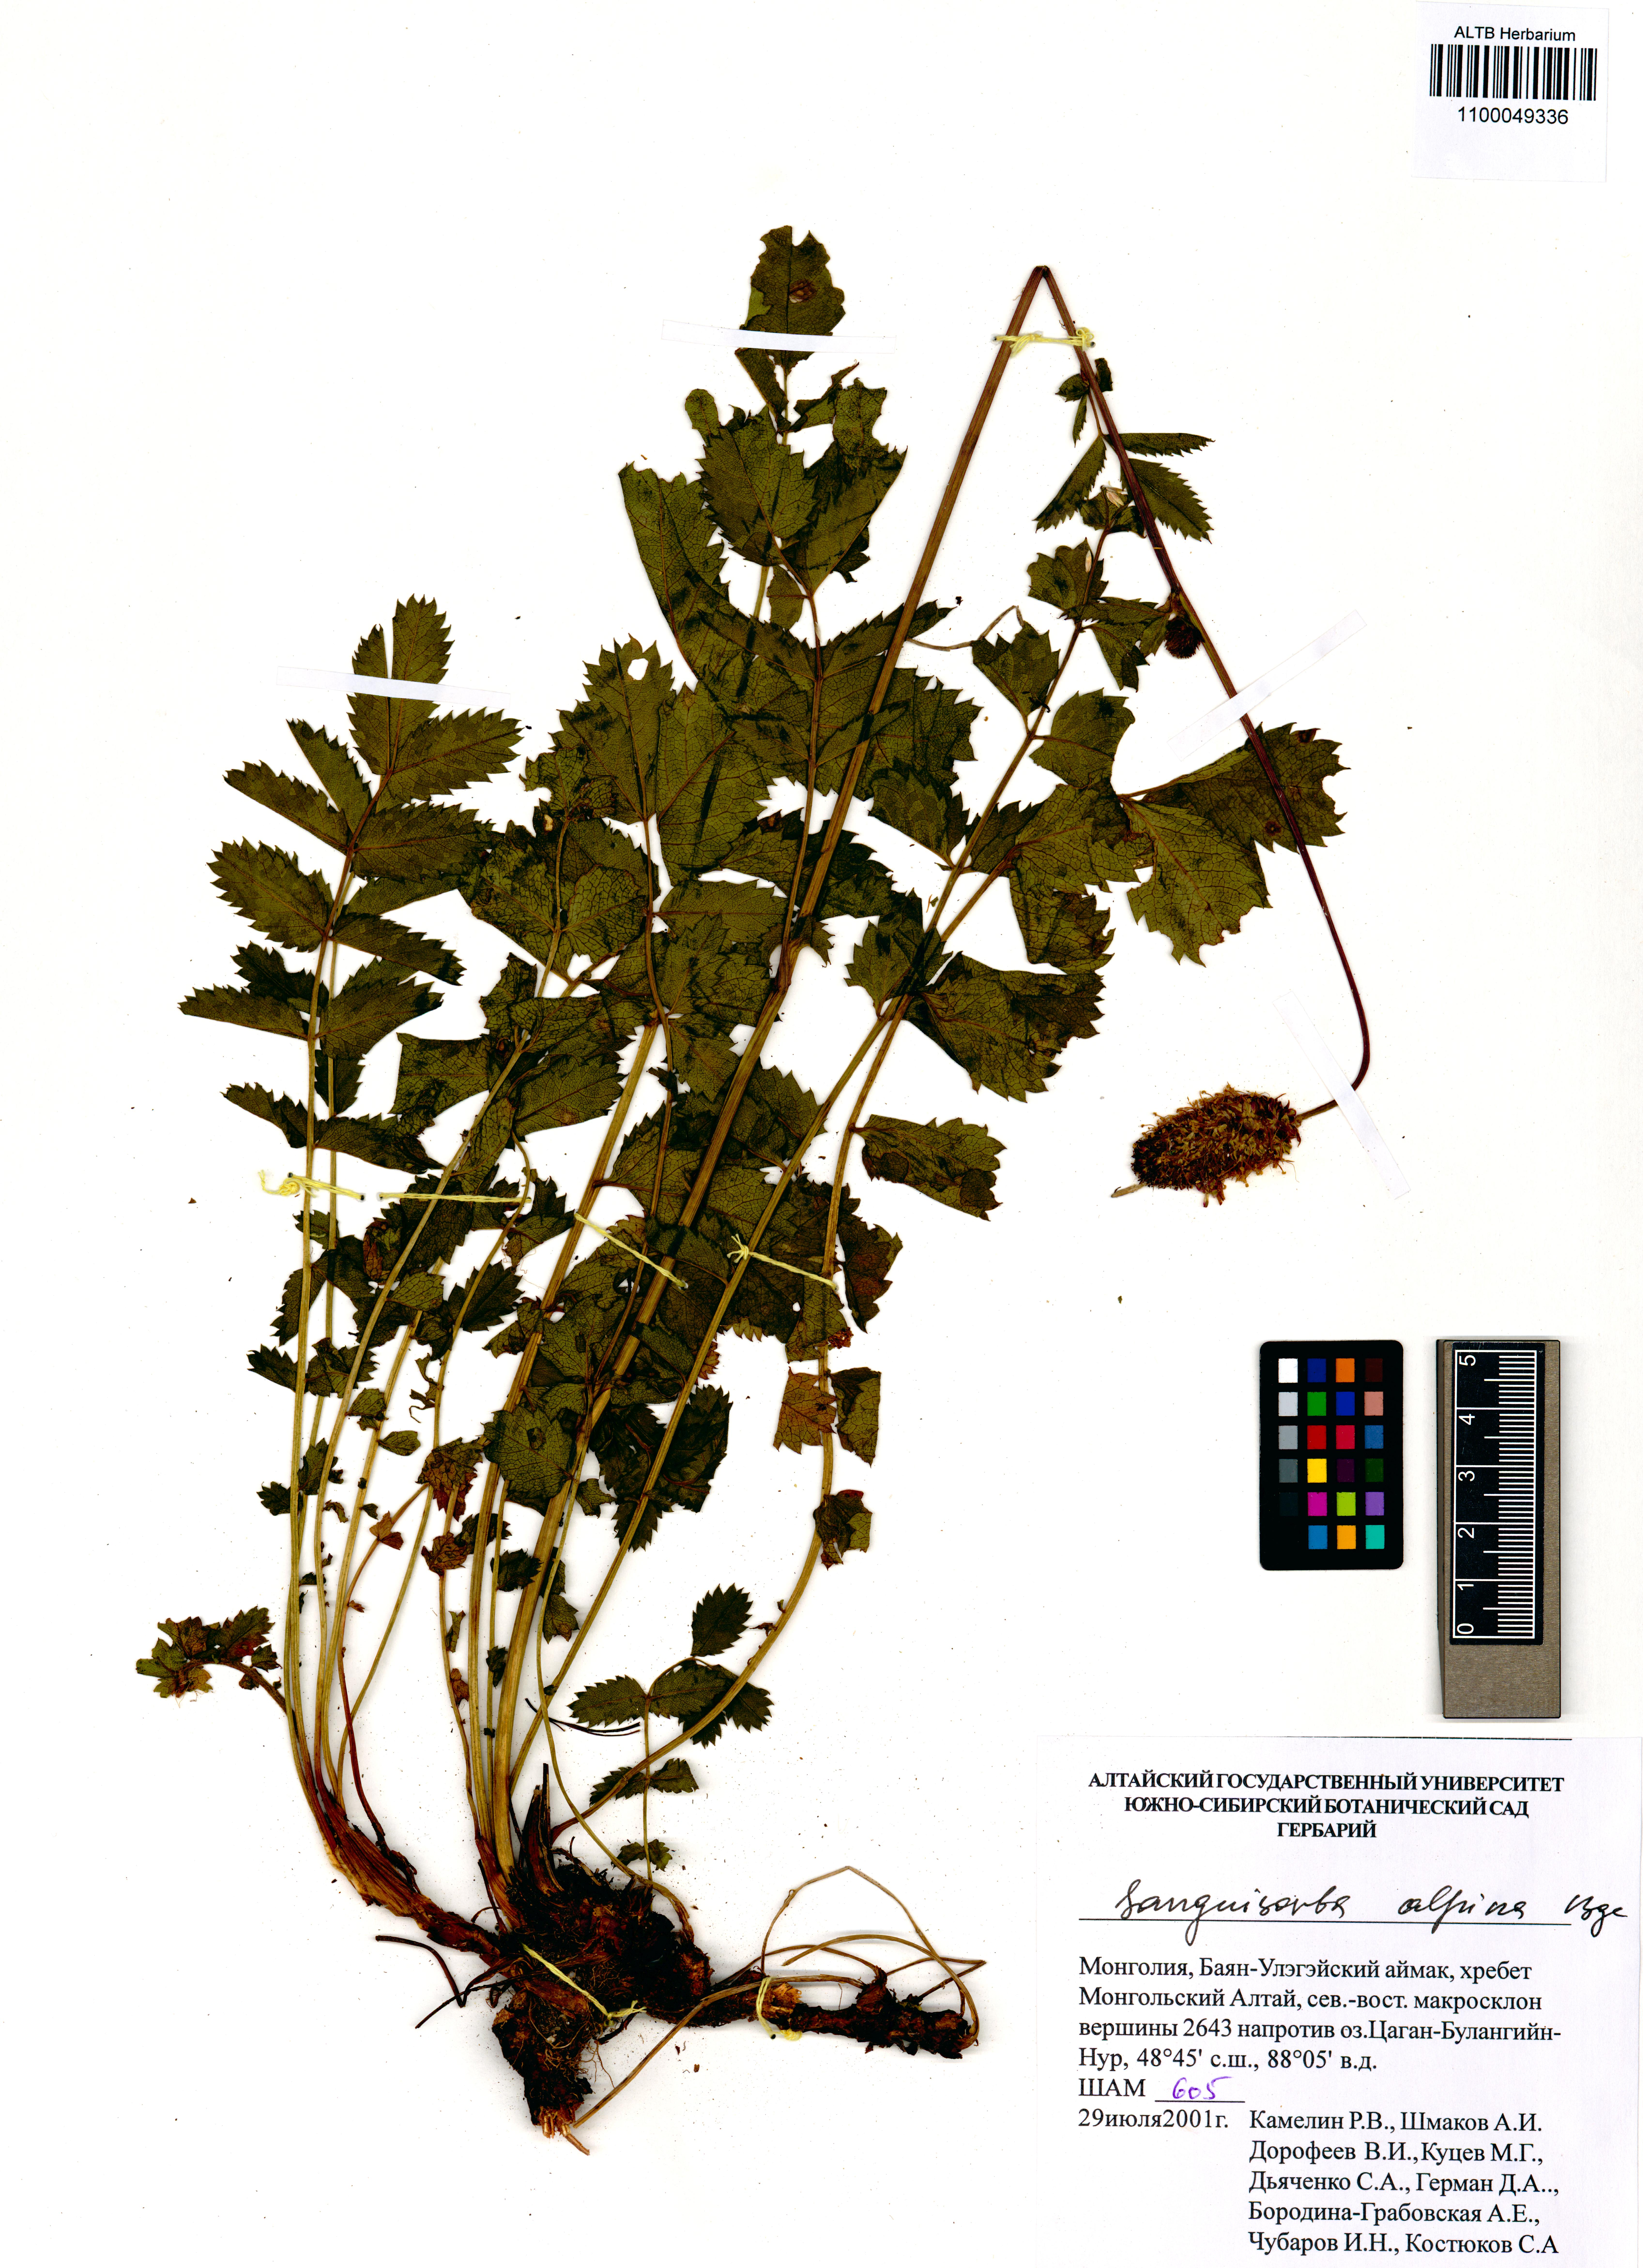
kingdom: Plantae
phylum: Tracheophyta
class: Magnoliopsida
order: Rosales
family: Rosaceae
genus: Sanguisorba
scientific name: Sanguisorba alpina
